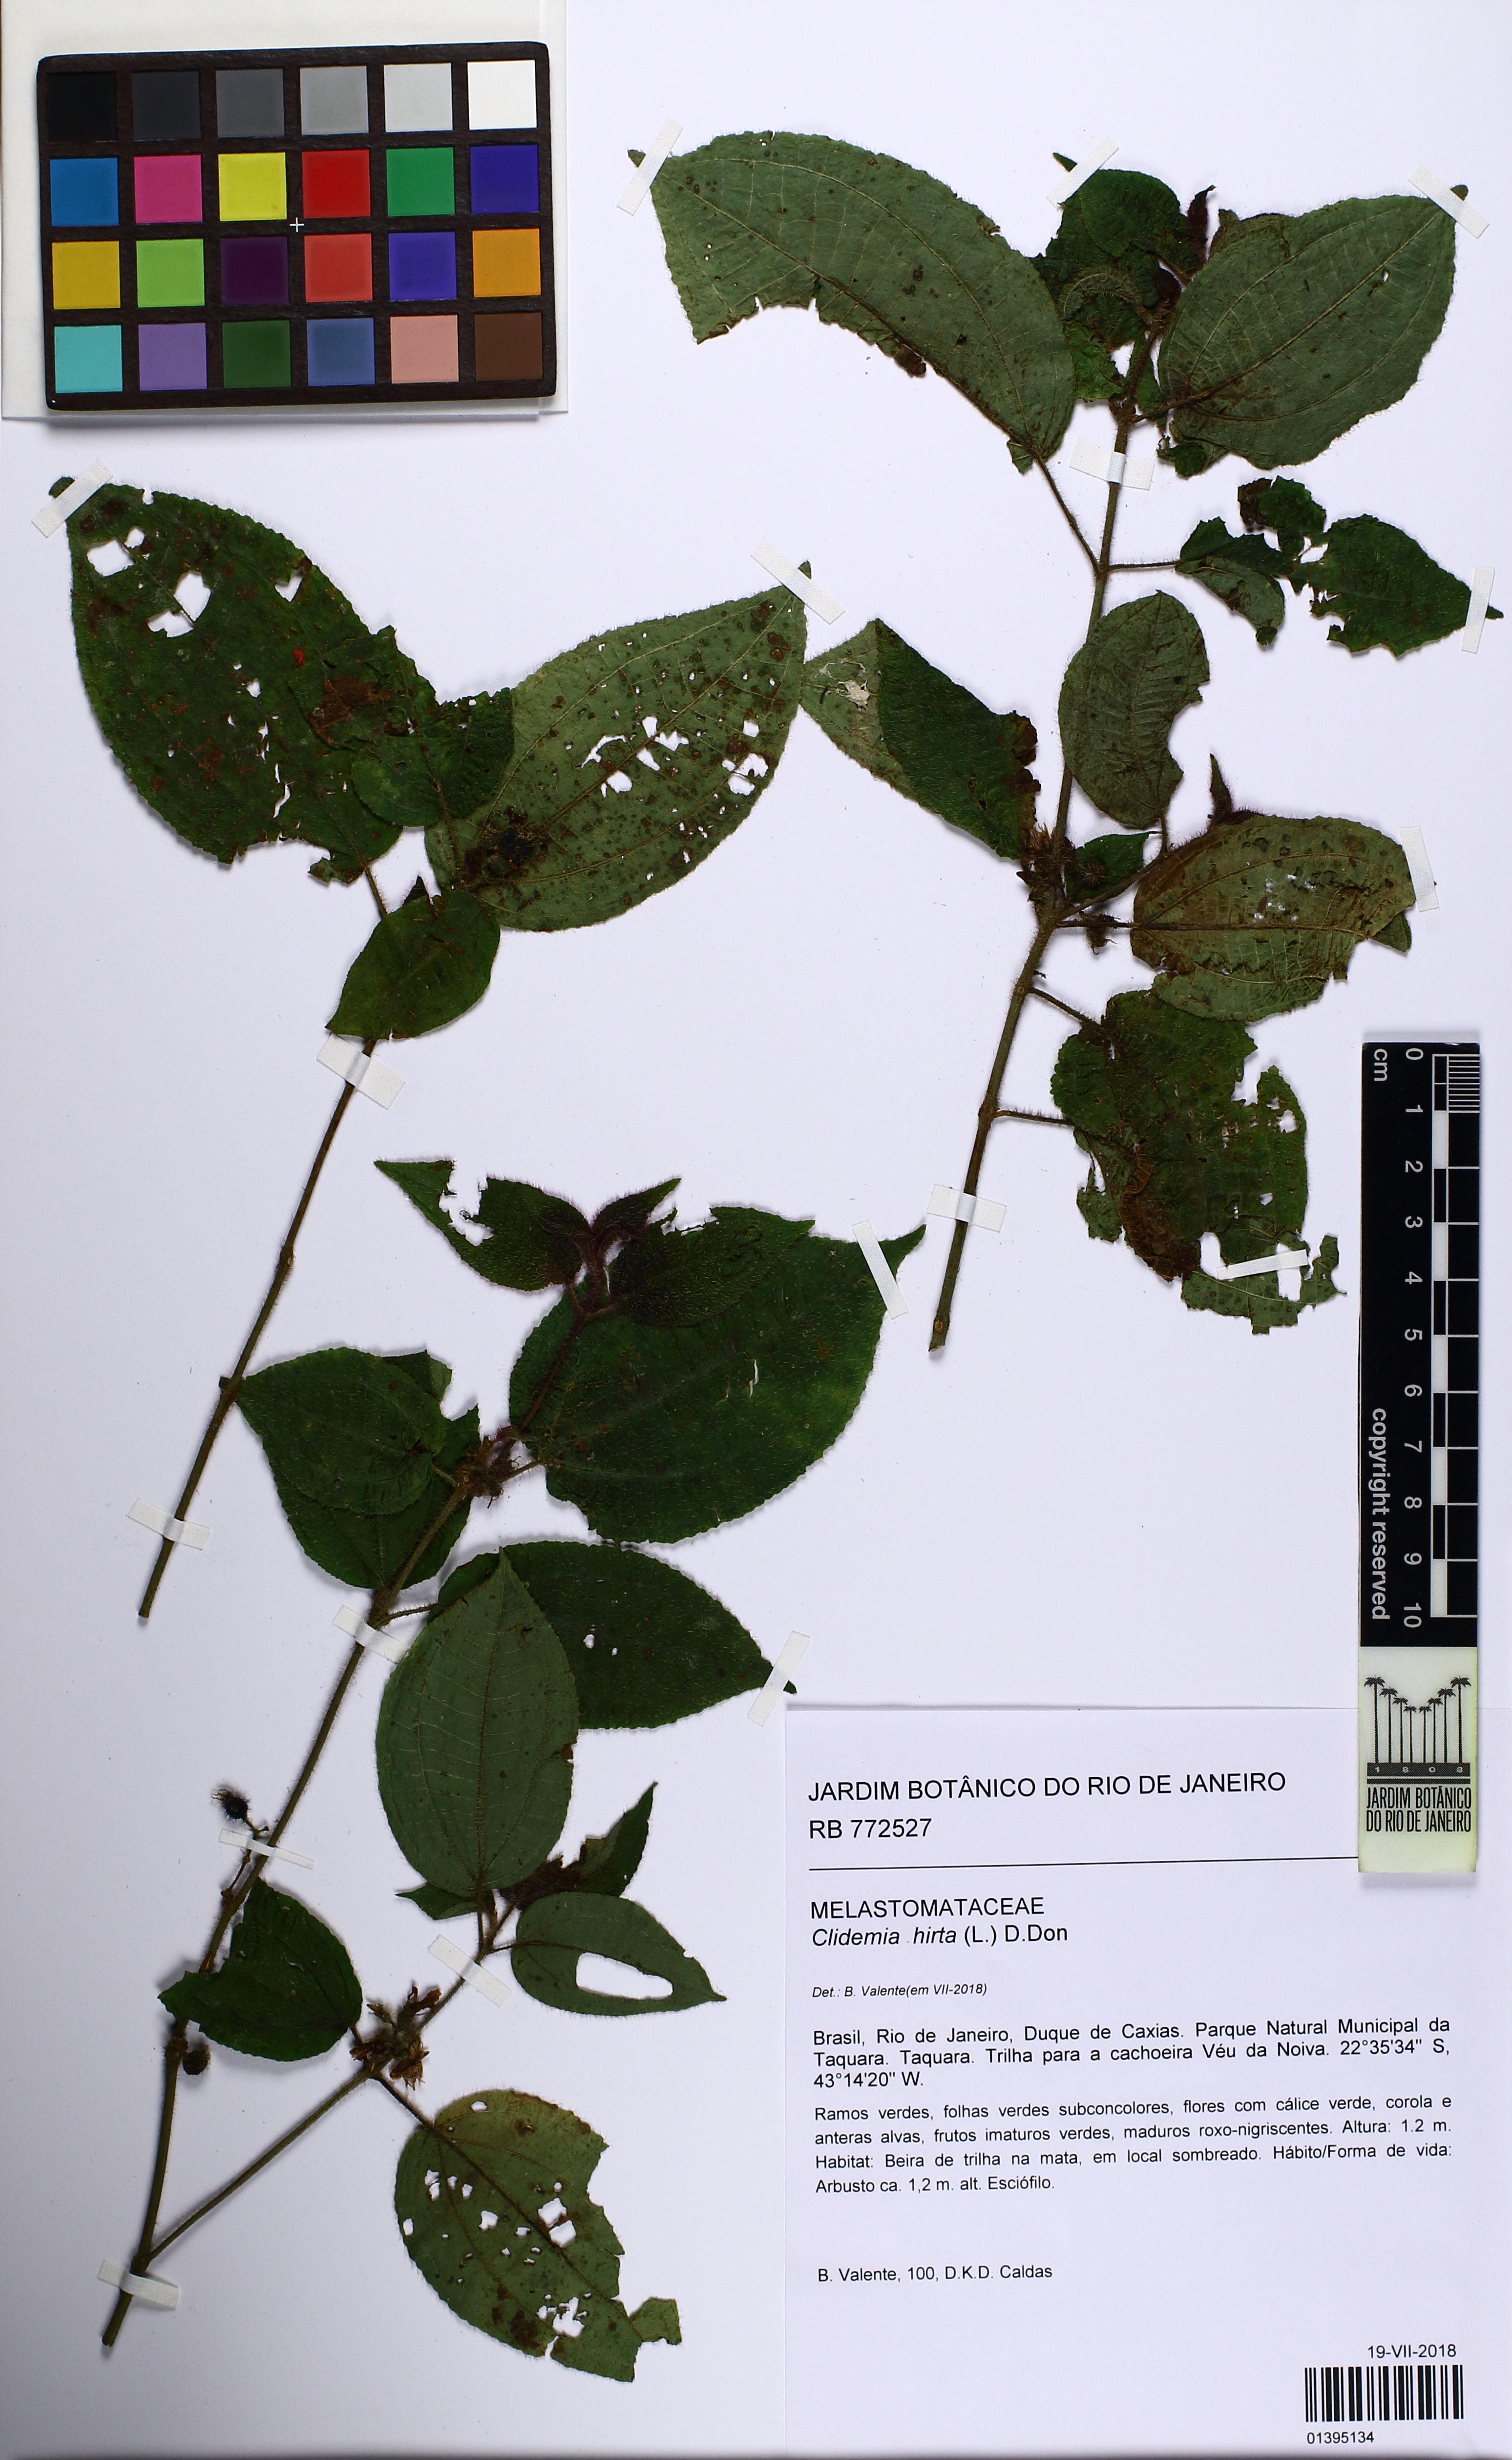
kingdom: Plantae
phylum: Tracheophyta
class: Magnoliopsida
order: Myrtales
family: Melastomataceae
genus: Miconia
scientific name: Miconia crenata
